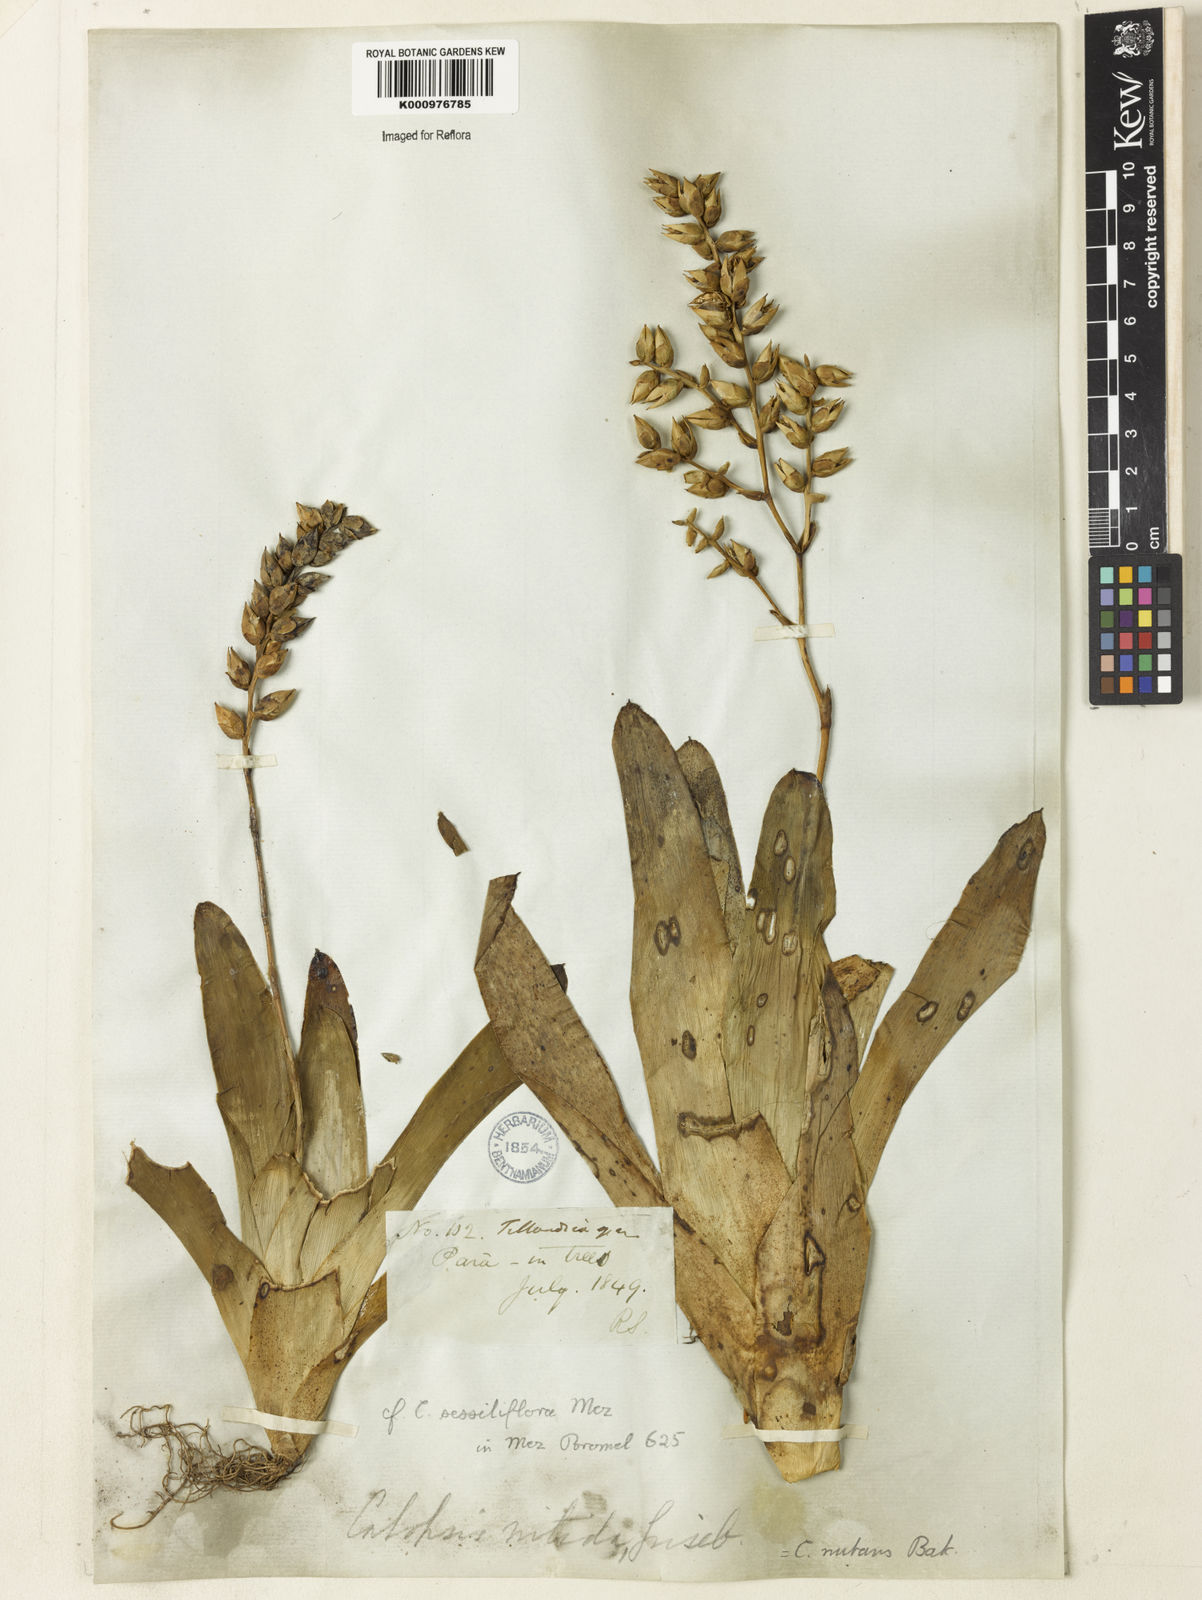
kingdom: Plantae
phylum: Tracheophyta
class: Liliopsida
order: Poales
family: Bromeliaceae
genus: Catopsis
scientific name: Catopsis
